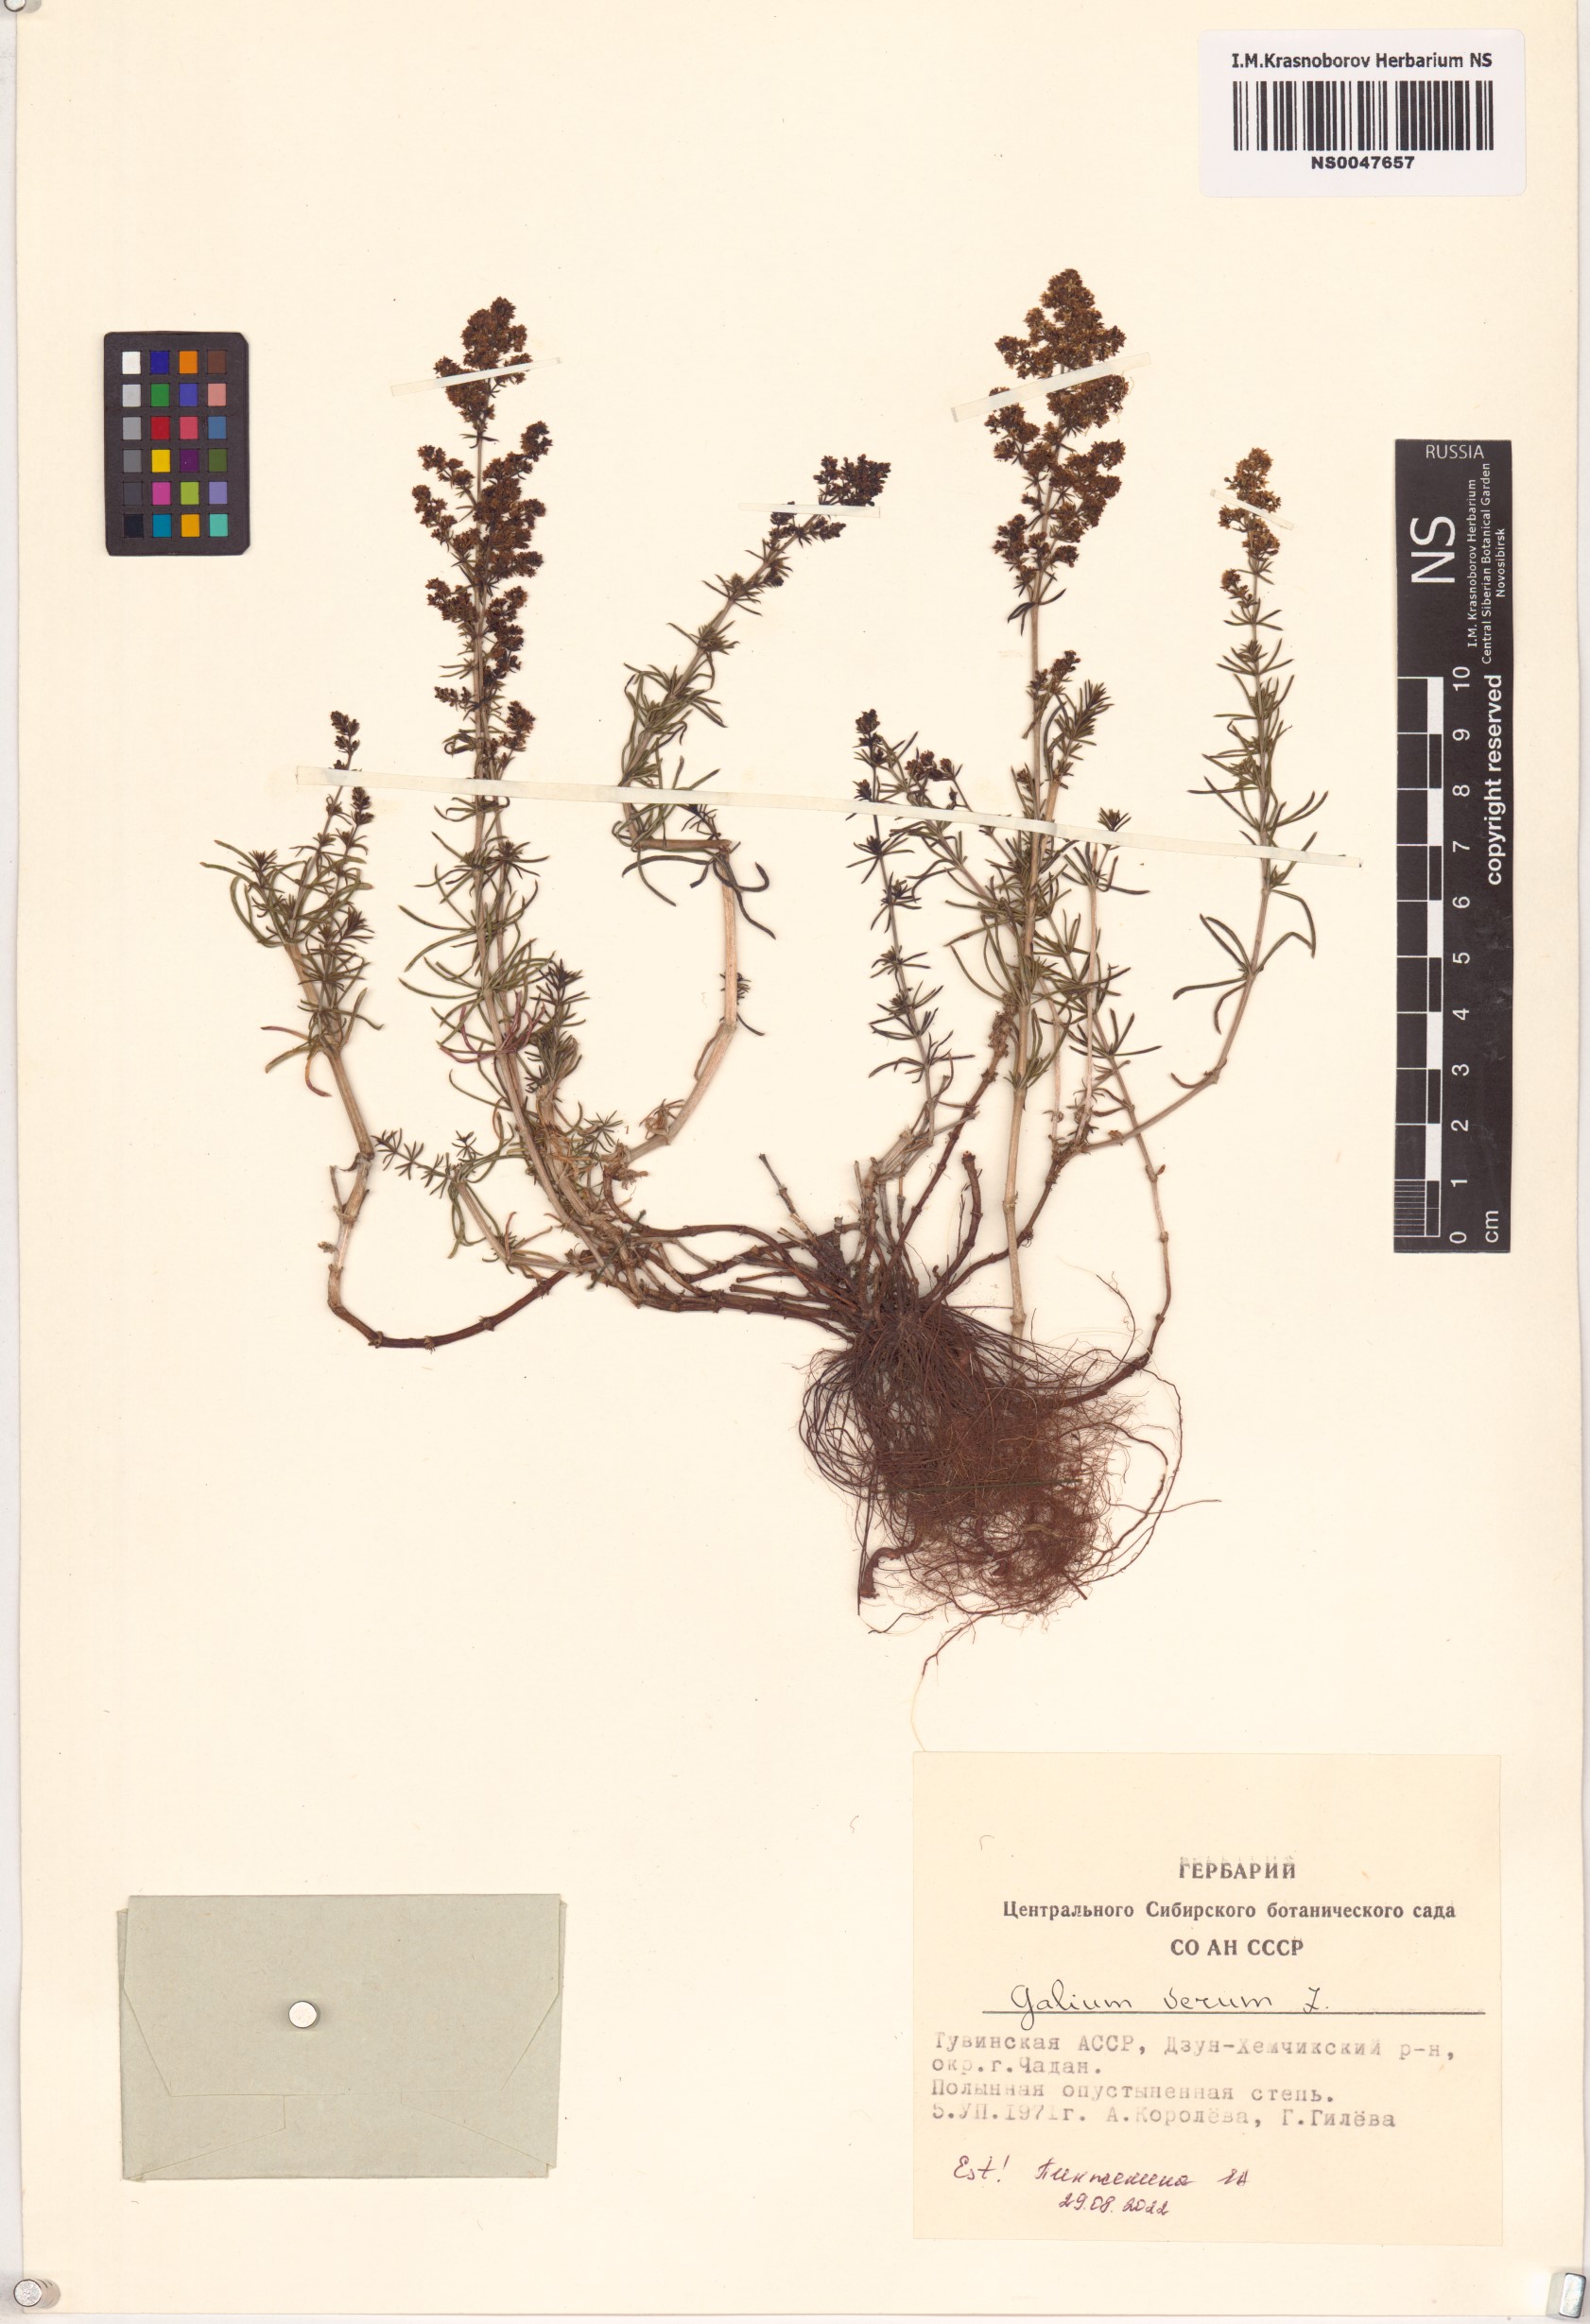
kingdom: Plantae
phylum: Tracheophyta
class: Magnoliopsida
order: Gentianales
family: Rubiaceae
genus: Galium
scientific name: Galium verum
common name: Lady's bedstraw
